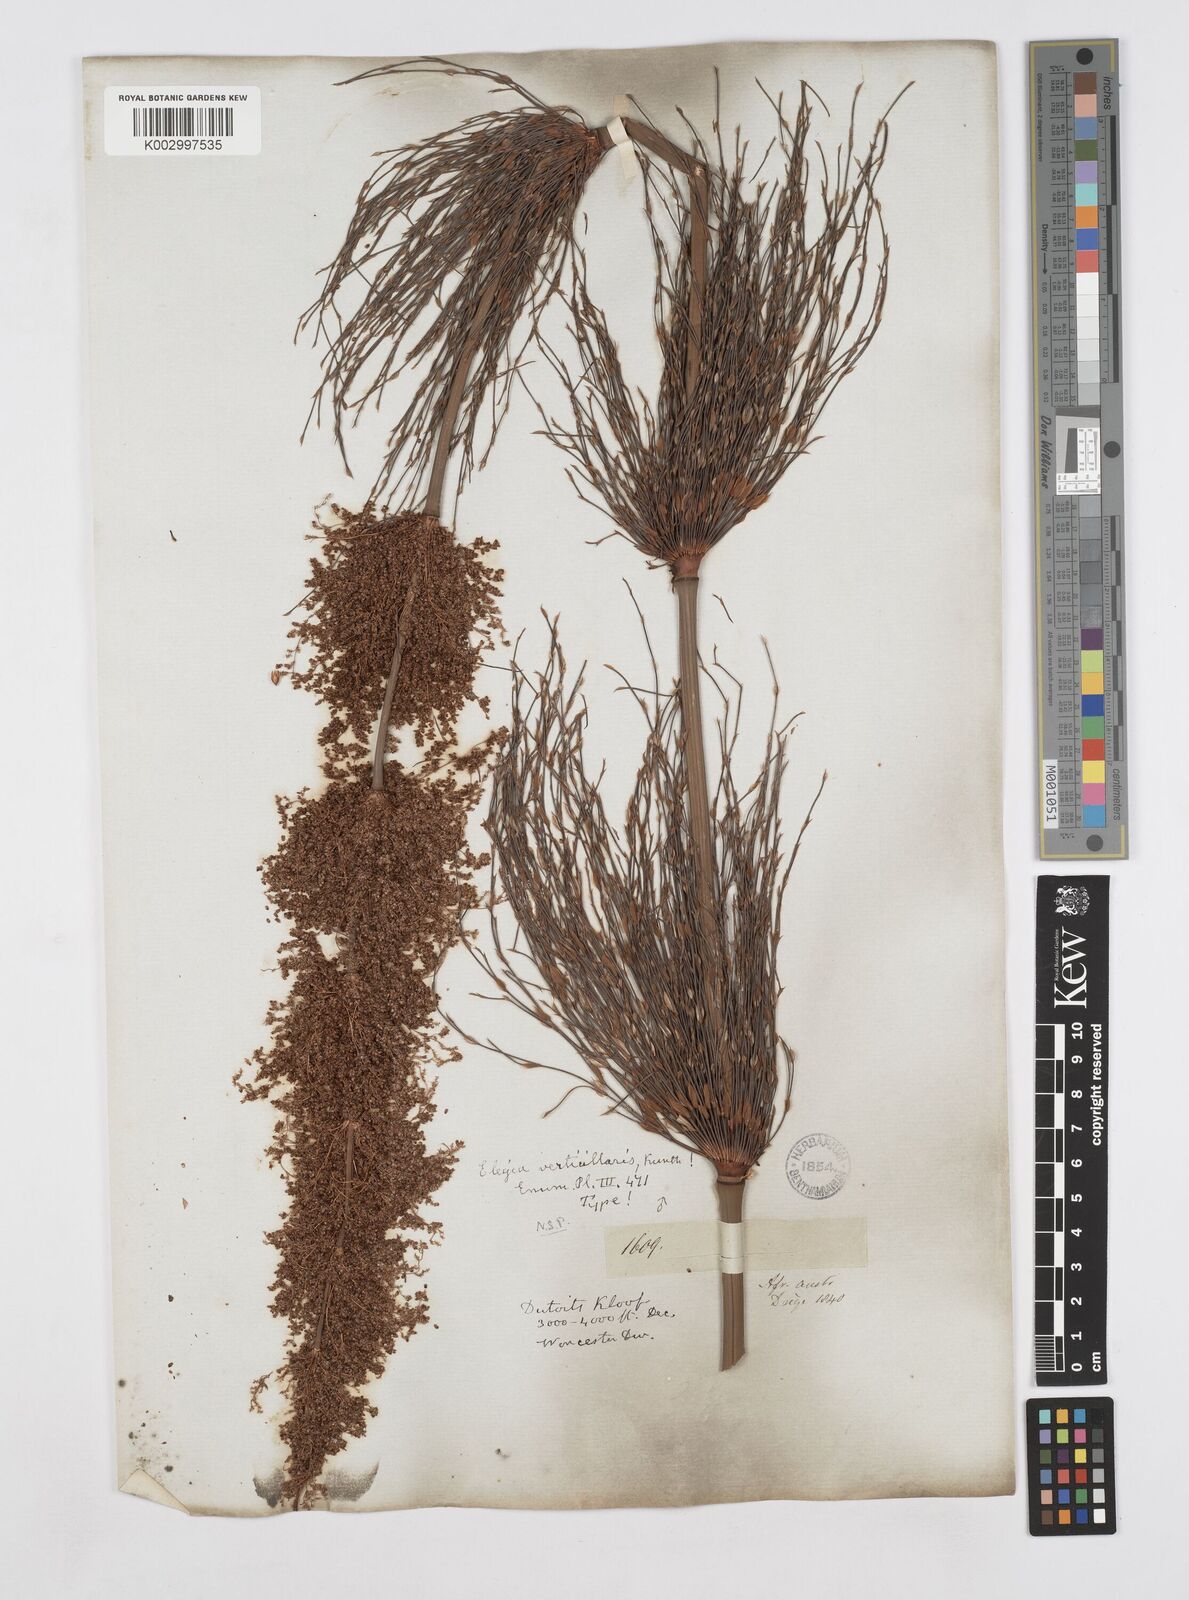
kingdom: Plantae
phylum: Tracheophyta
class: Liliopsida
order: Poales
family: Restionaceae
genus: Elegia
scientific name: Elegia capensis
